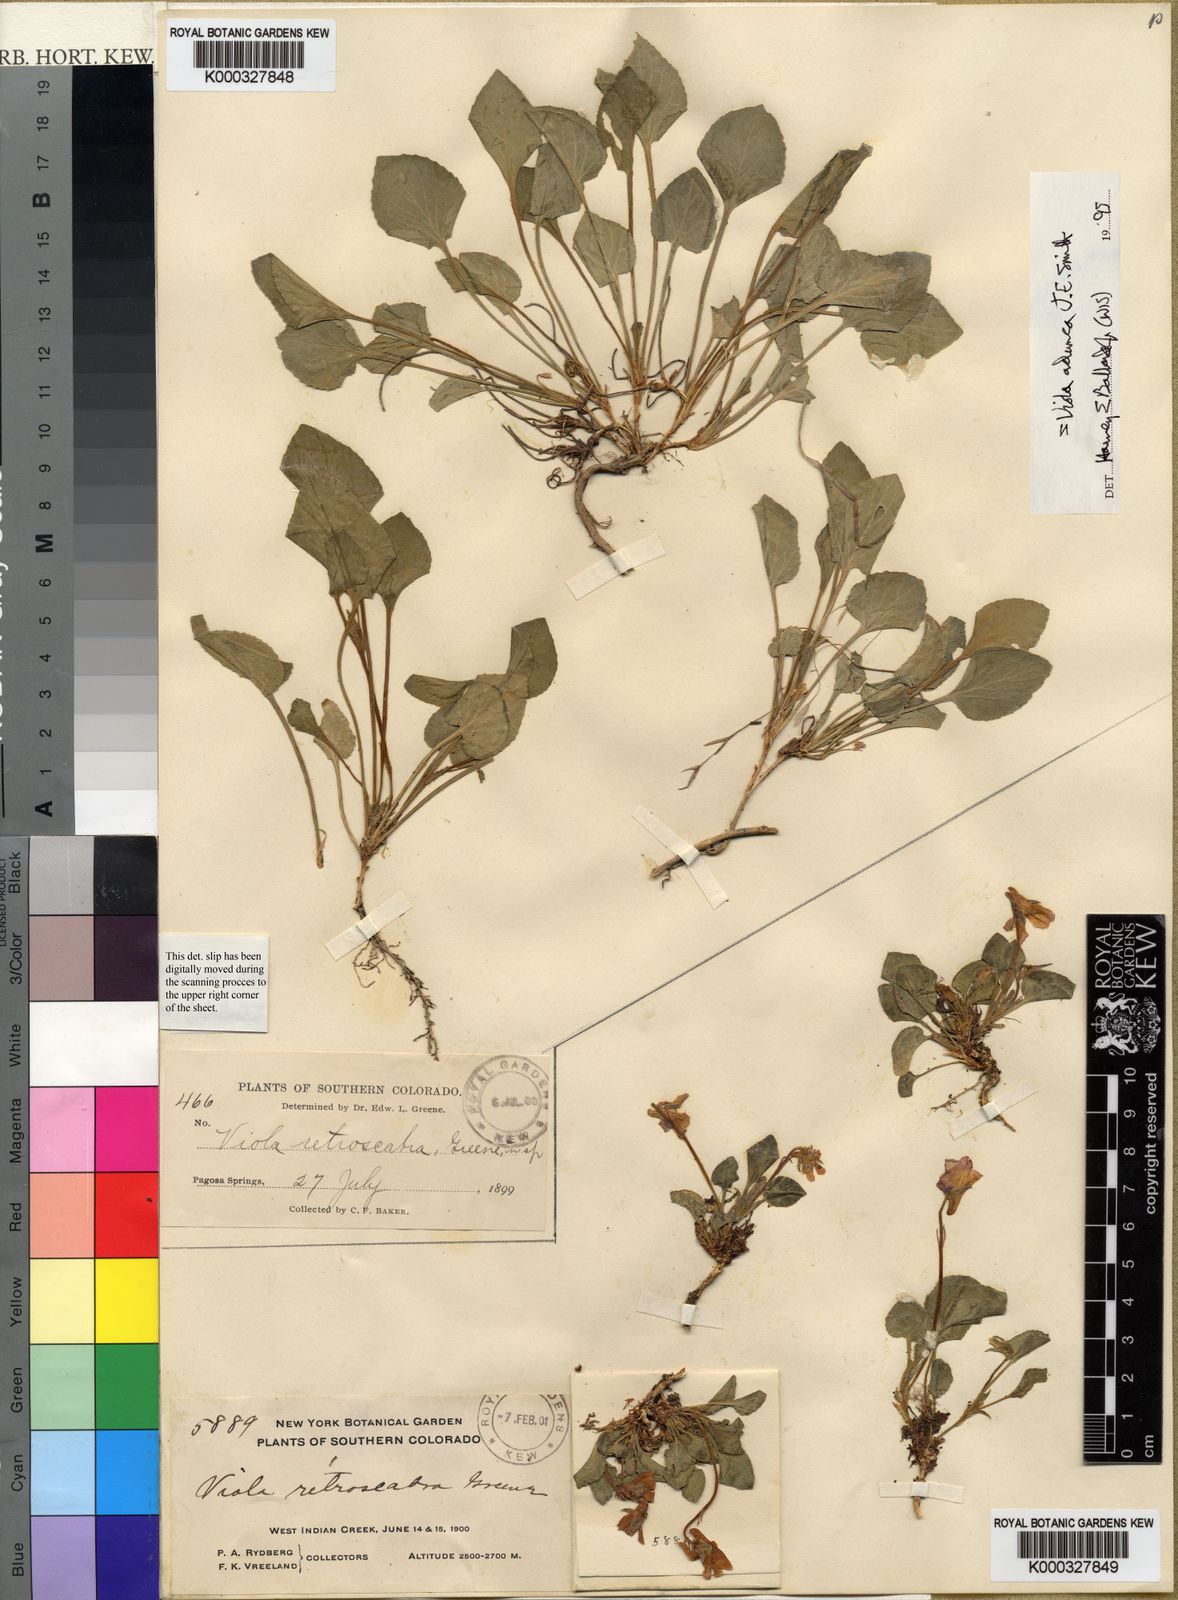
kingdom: Plantae
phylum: Tracheophyta
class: Magnoliopsida
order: Malpighiales
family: Violaceae
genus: Viola
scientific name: Viola adunca
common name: Sand violet
